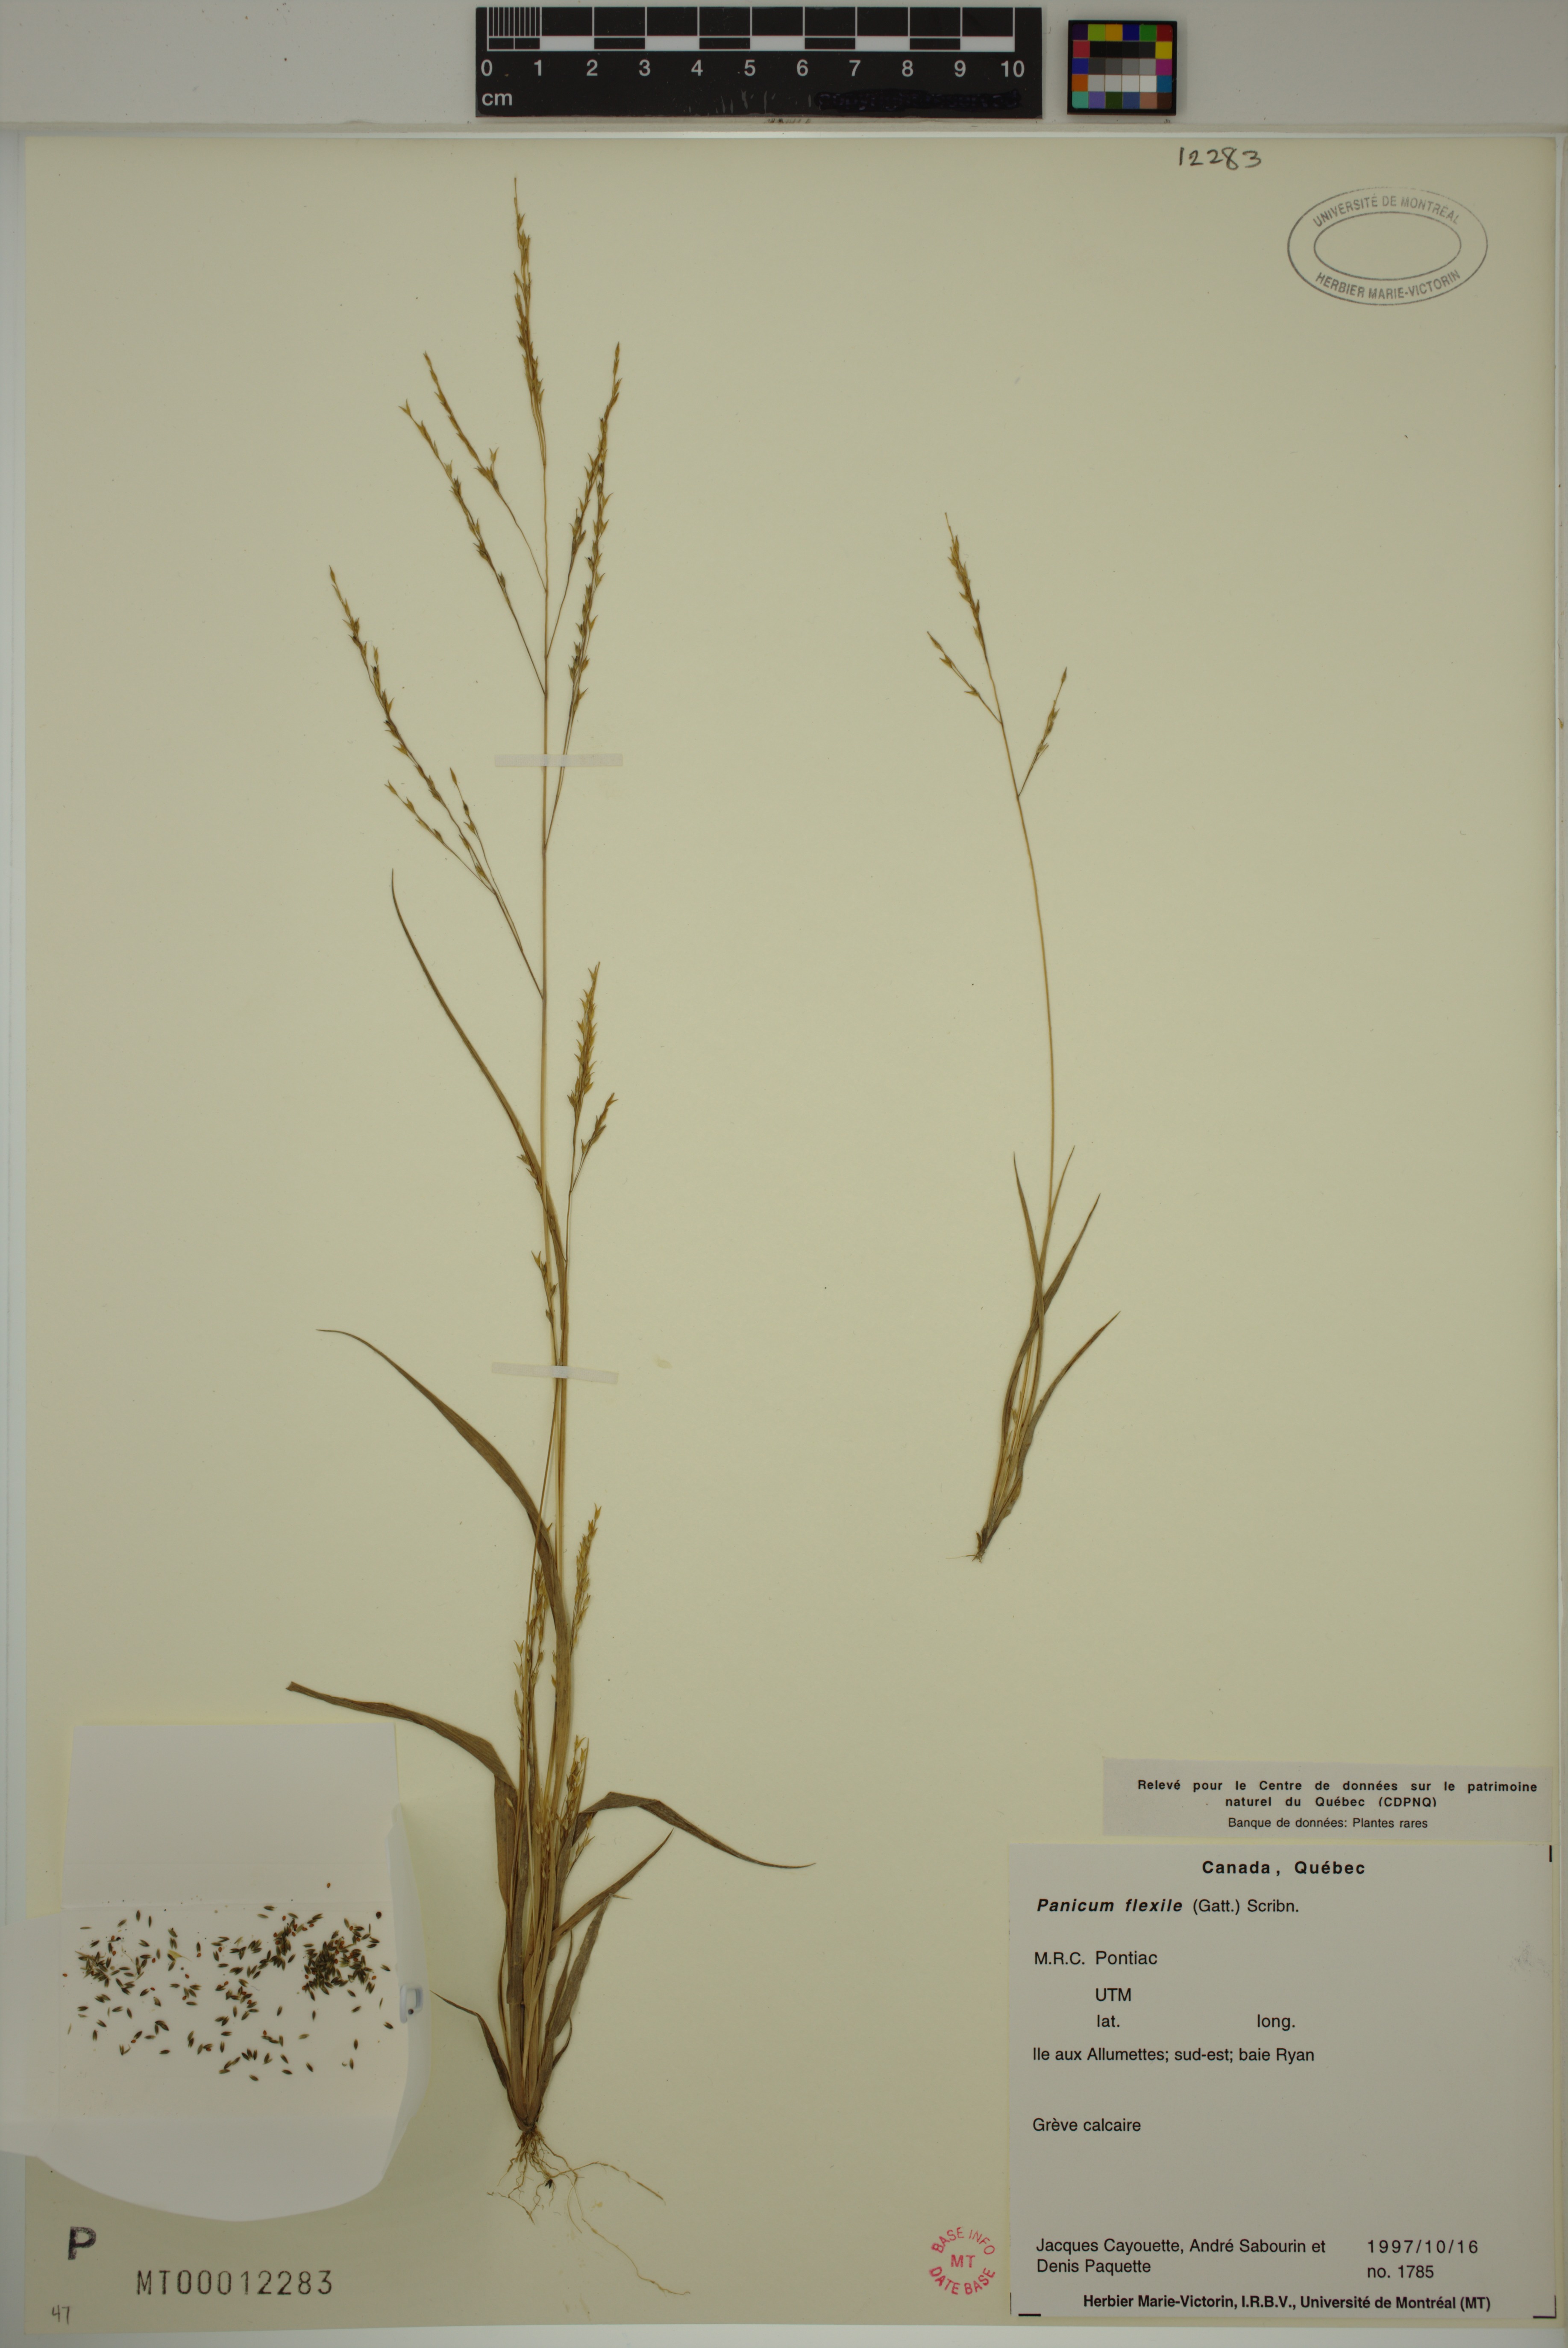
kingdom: Plantae
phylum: Tracheophyta
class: Liliopsida
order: Poales
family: Poaceae
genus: Panicum
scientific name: Panicum flexile
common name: Wiry panicgrass
